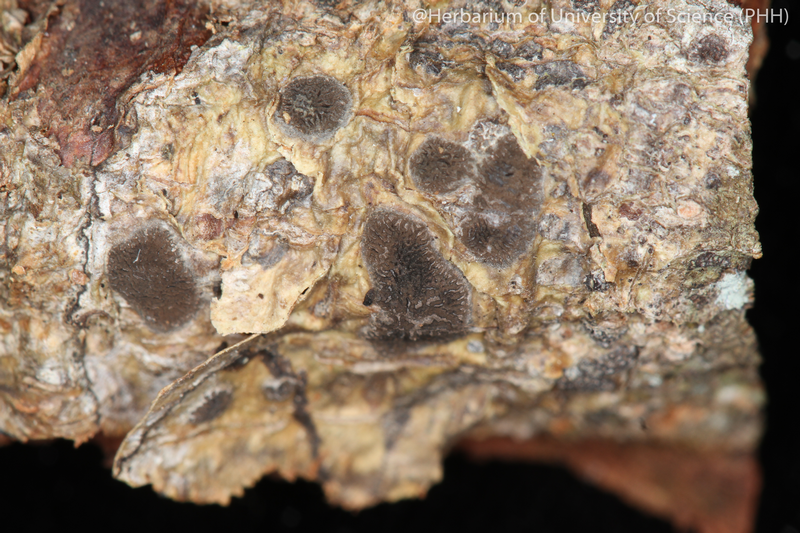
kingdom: Fungi
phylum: Ascomycota
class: Lecanoromycetes
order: Ostropales
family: Graphidaceae
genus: Glyphis
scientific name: Glyphis cicatricosa
